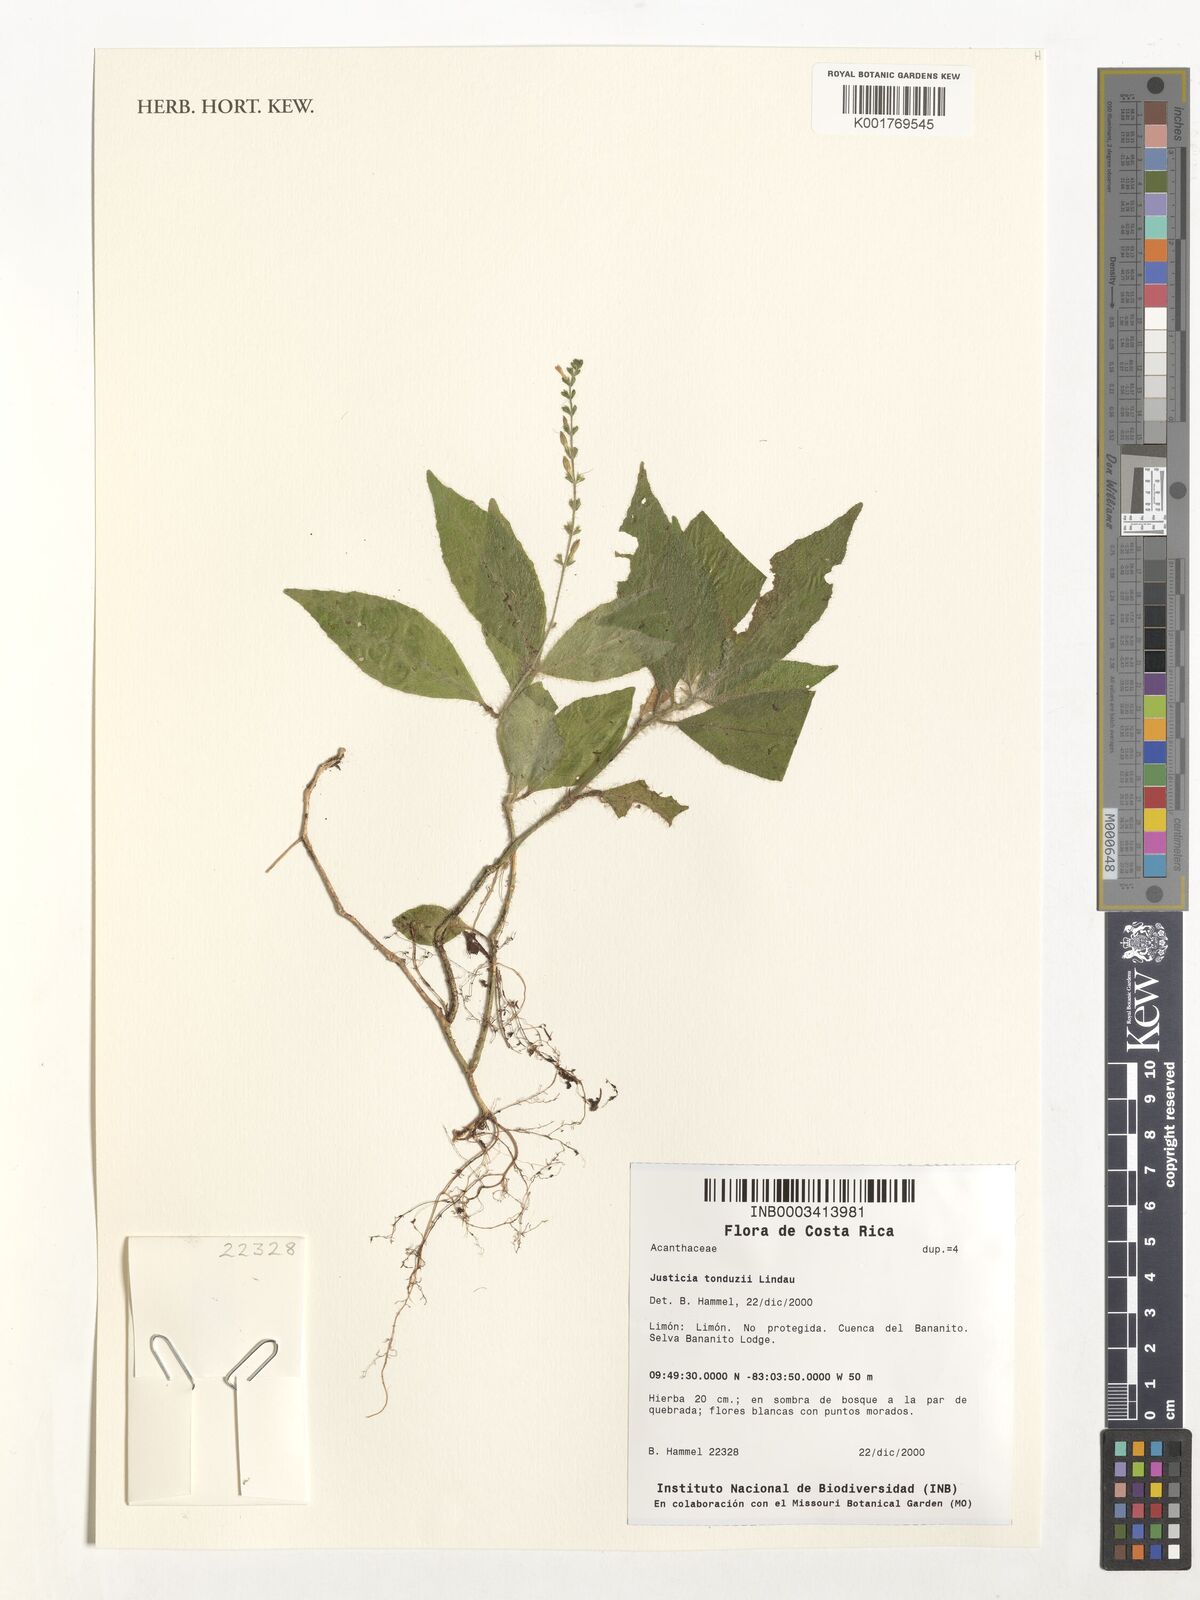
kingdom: Plantae
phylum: Tracheophyta
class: Magnoliopsida
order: Lamiales
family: Acanthaceae
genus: Justicia
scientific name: Justicia tonduzii
